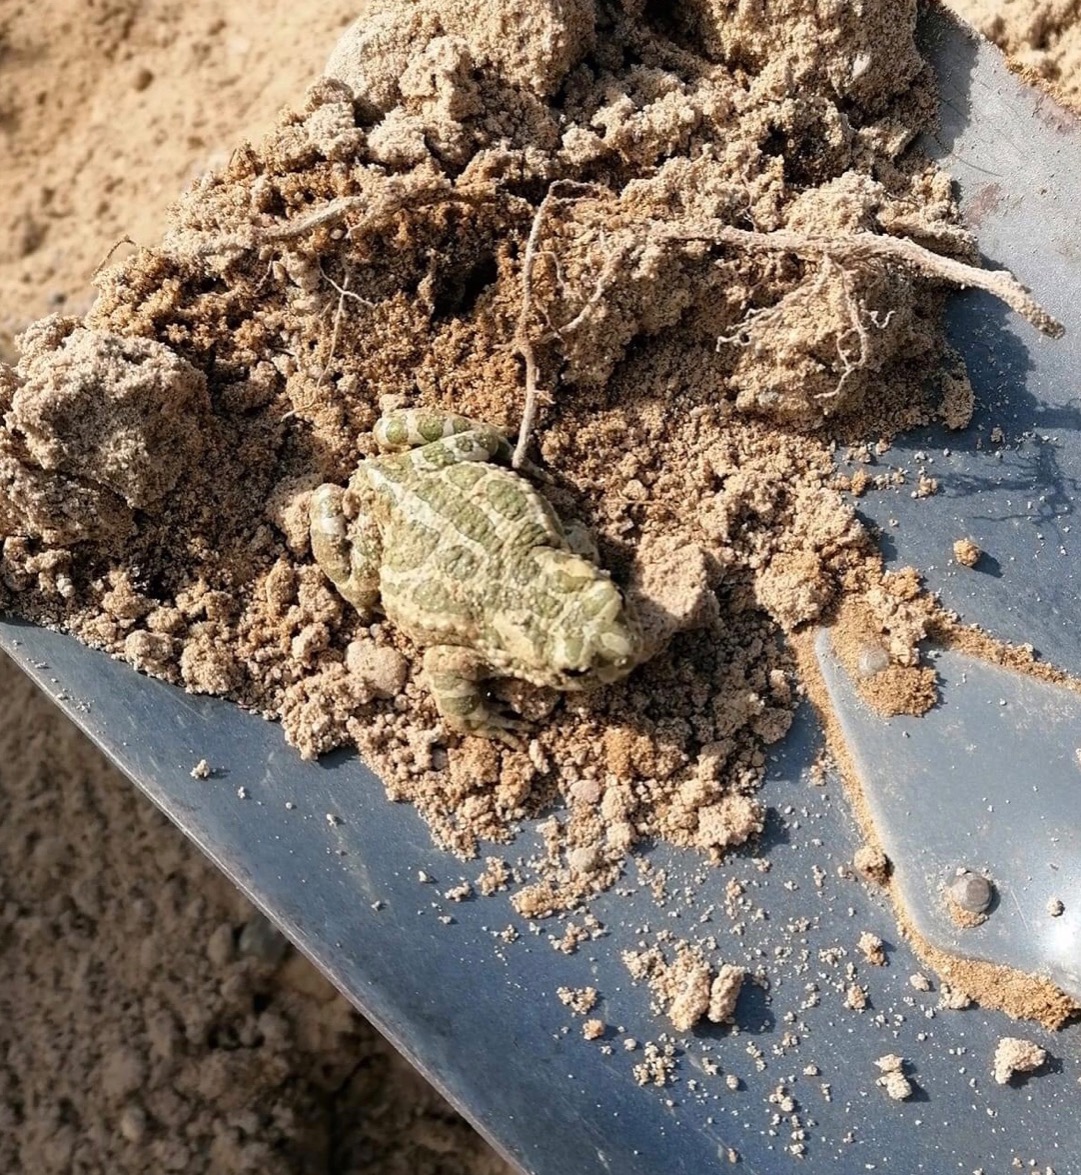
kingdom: Animalia
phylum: Chordata
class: Amphibia
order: Anura
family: Bufonidae
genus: Bufotes
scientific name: Bufotes viridis
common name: Grønbroget tudse
